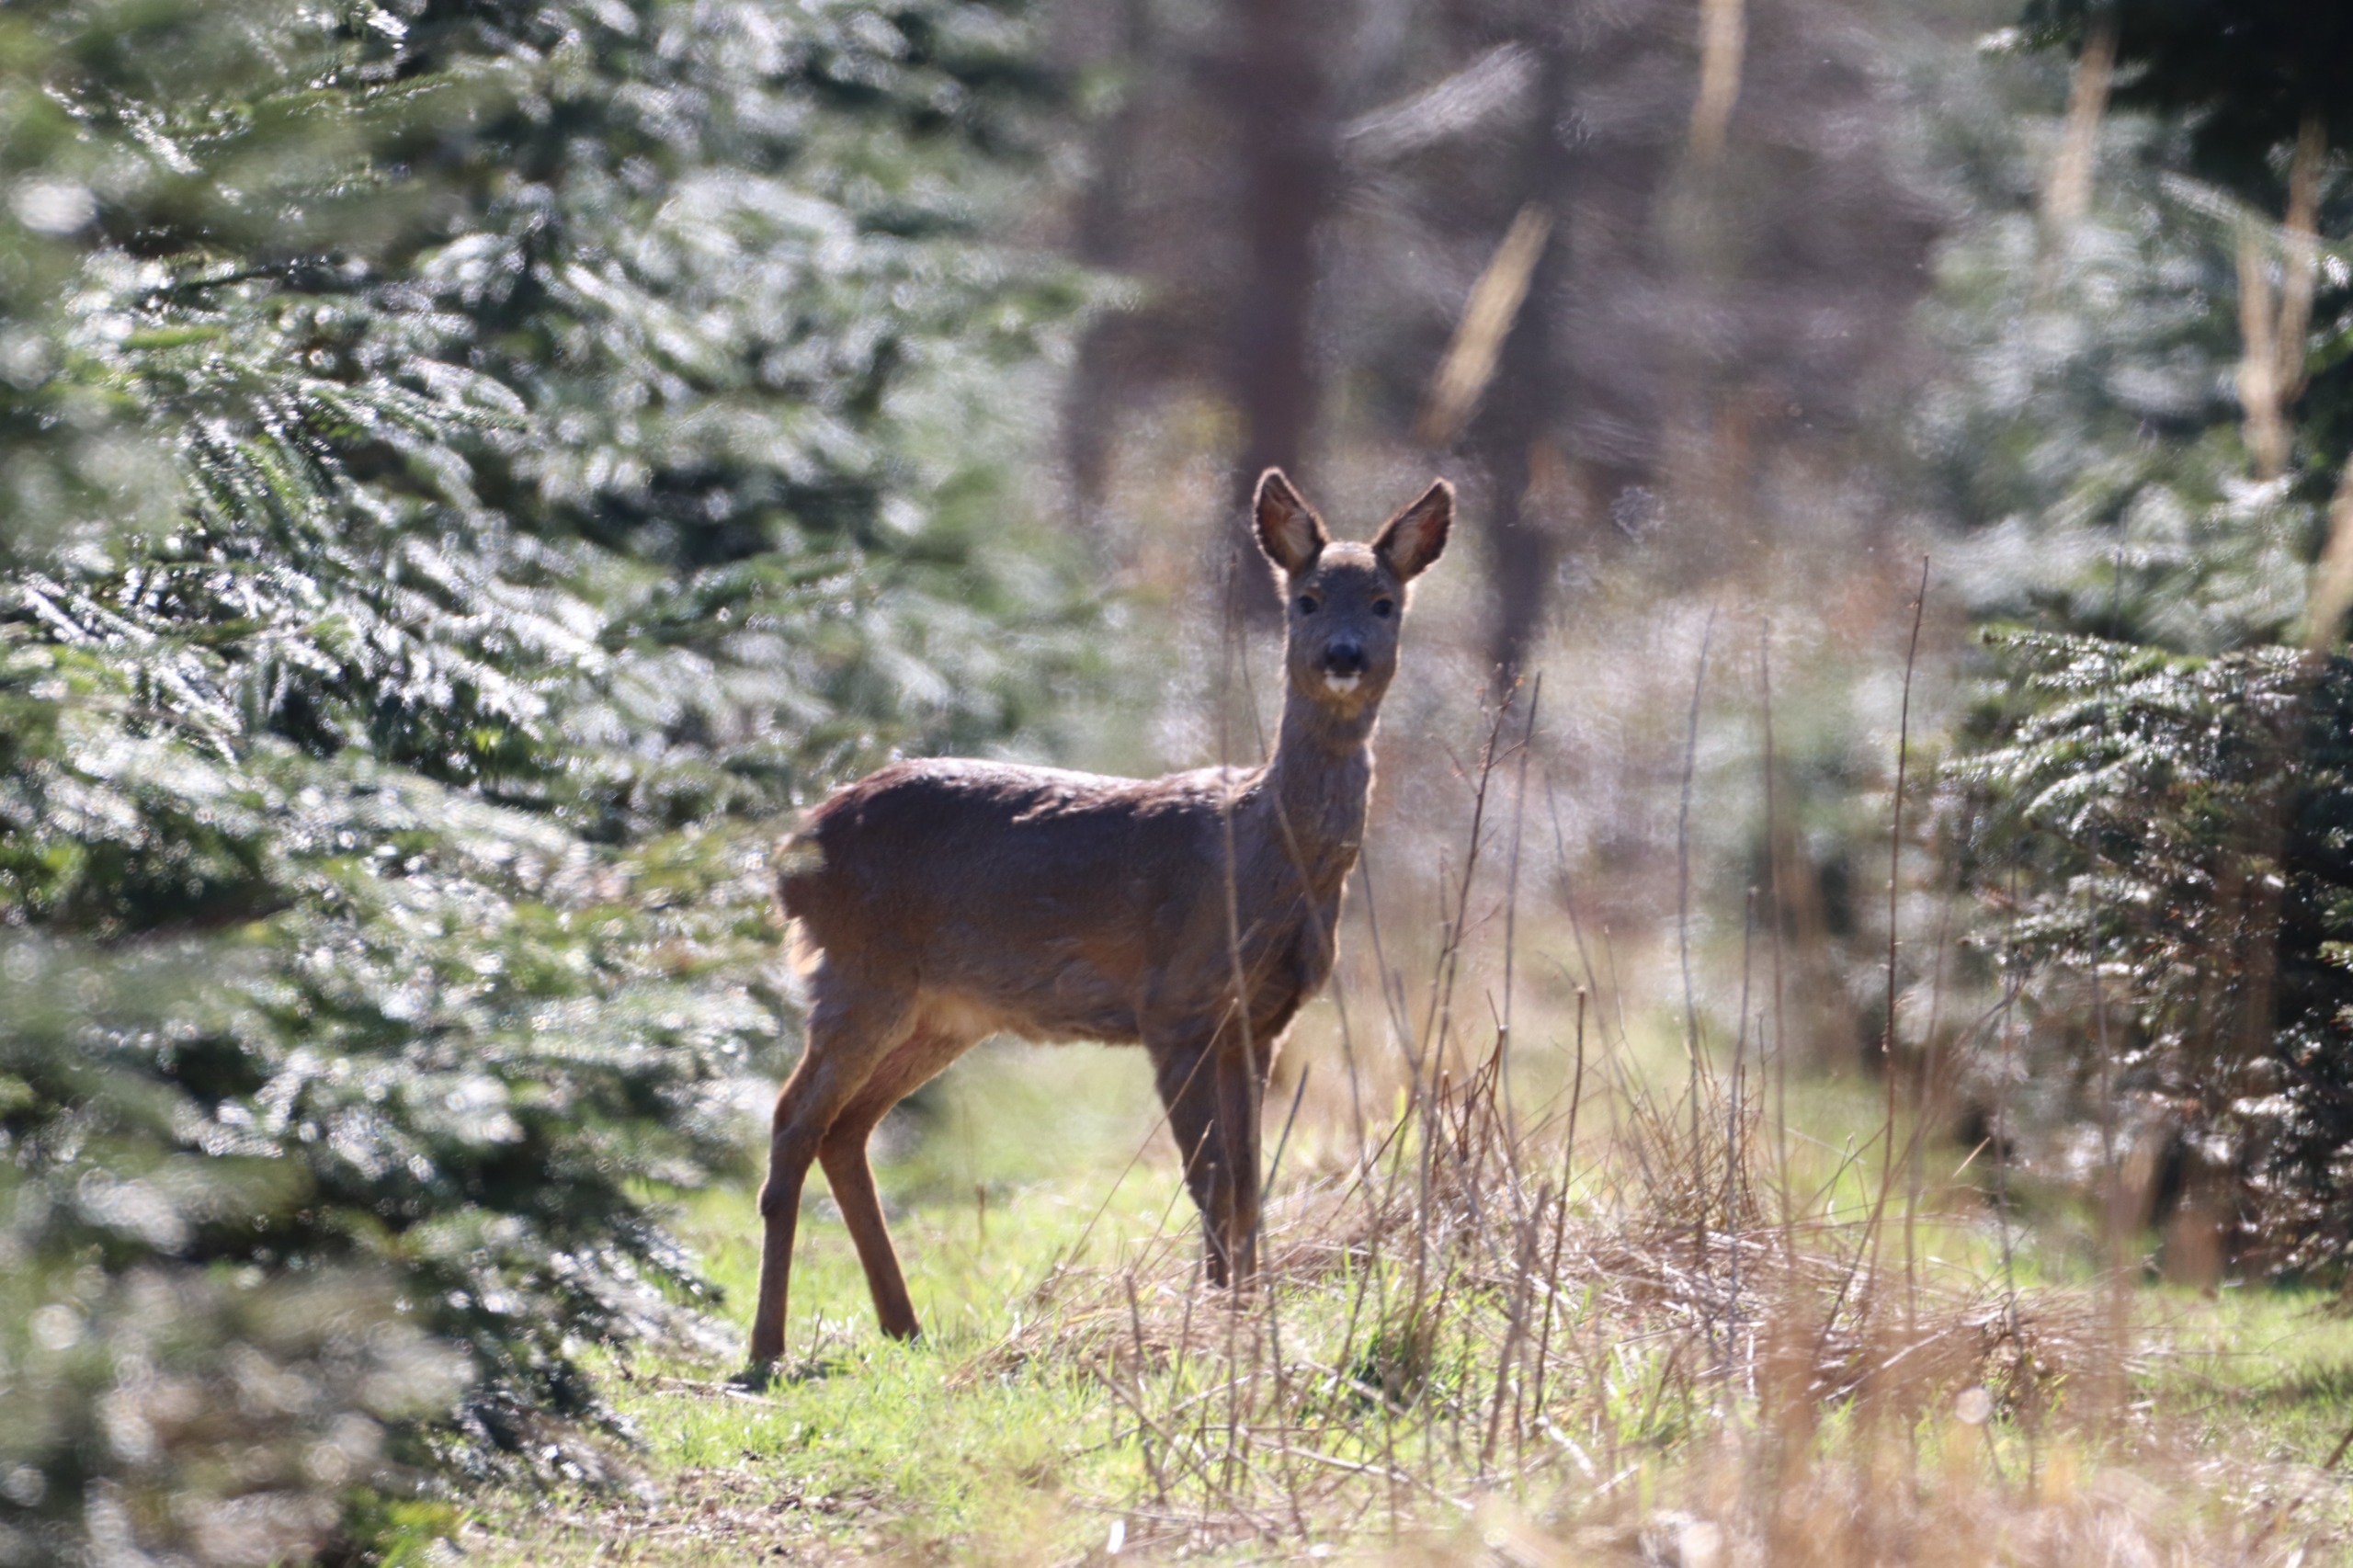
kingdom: Animalia
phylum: Chordata
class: Mammalia
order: Artiodactyla
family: Cervidae
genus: Capreolus
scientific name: Capreolus capreolus
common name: Rådyr
